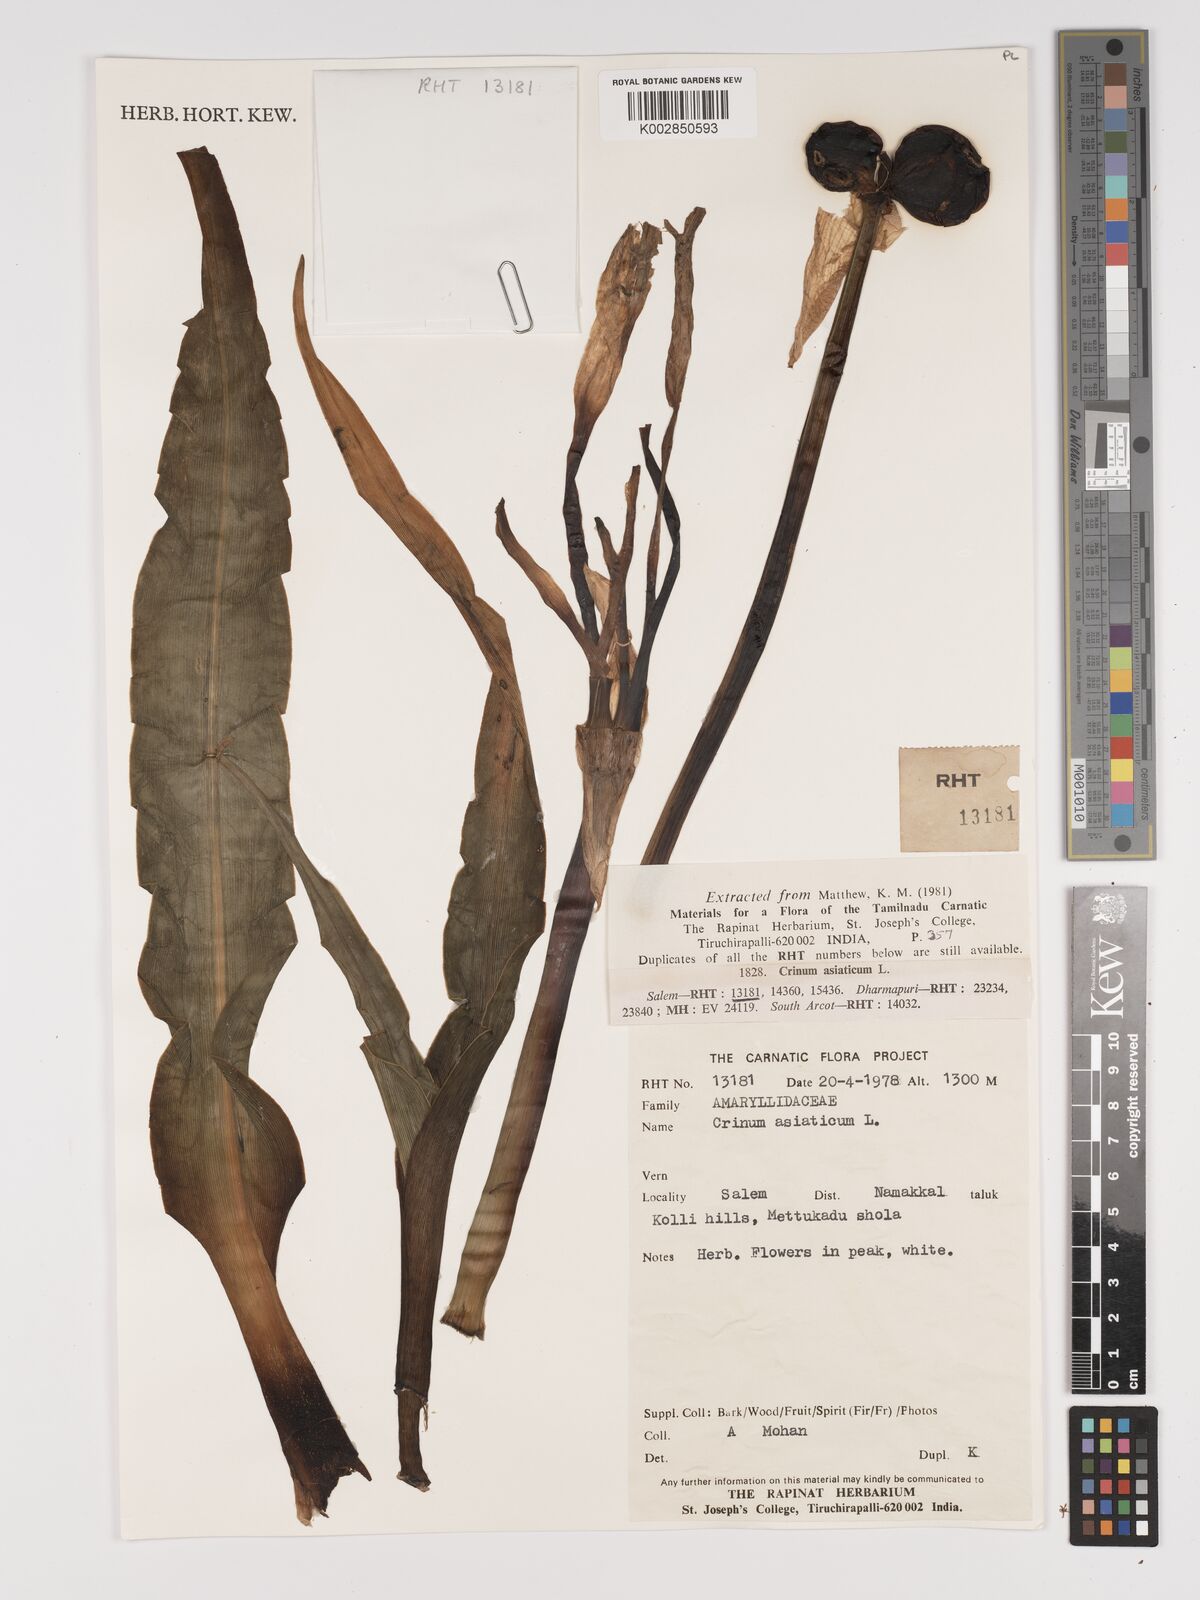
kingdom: Plantae
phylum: Tracheophyta
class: Liliopsida
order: Asparagales
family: Amaryllidaceae
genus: Crinum
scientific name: Crinum asiaticum
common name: Poisonbulb
